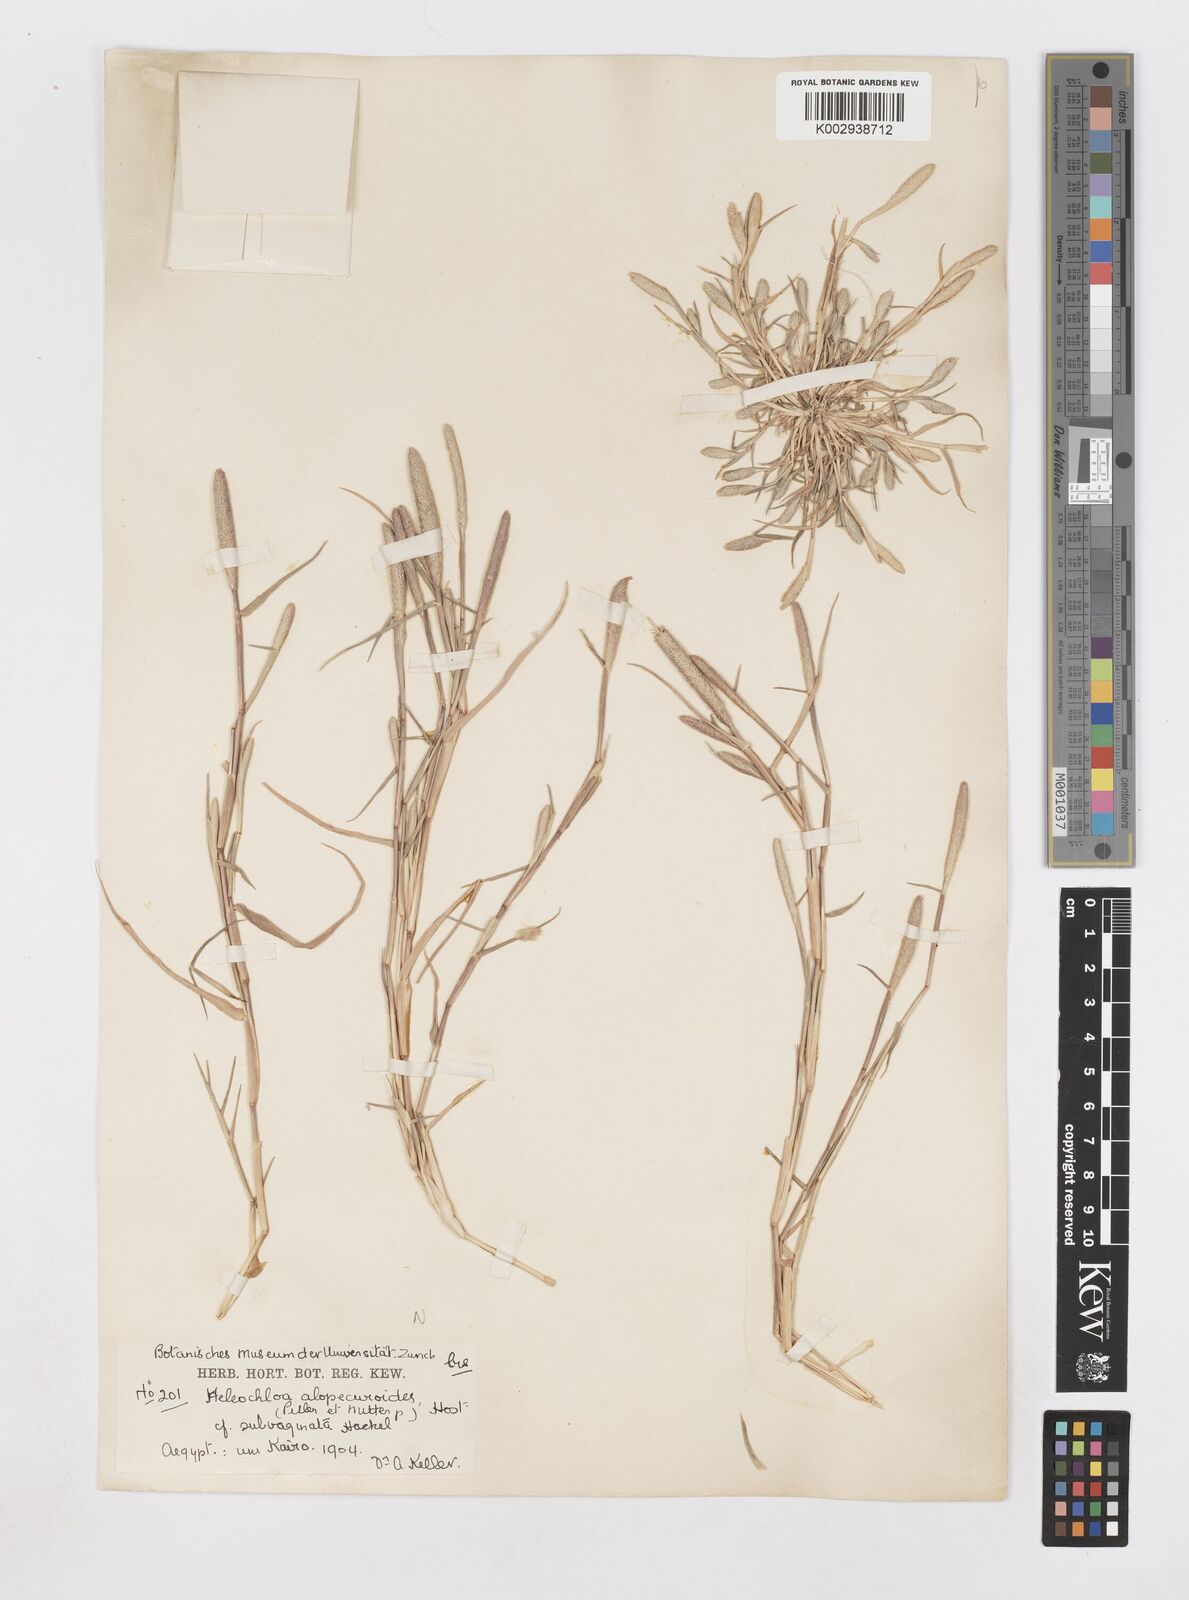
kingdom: Plantae
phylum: Tracheophyta
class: Liliopsida
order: Poales
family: Poaceae
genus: Sporobolus
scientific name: Sporobolus alopecuroides
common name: Foxtail pricklegrass
